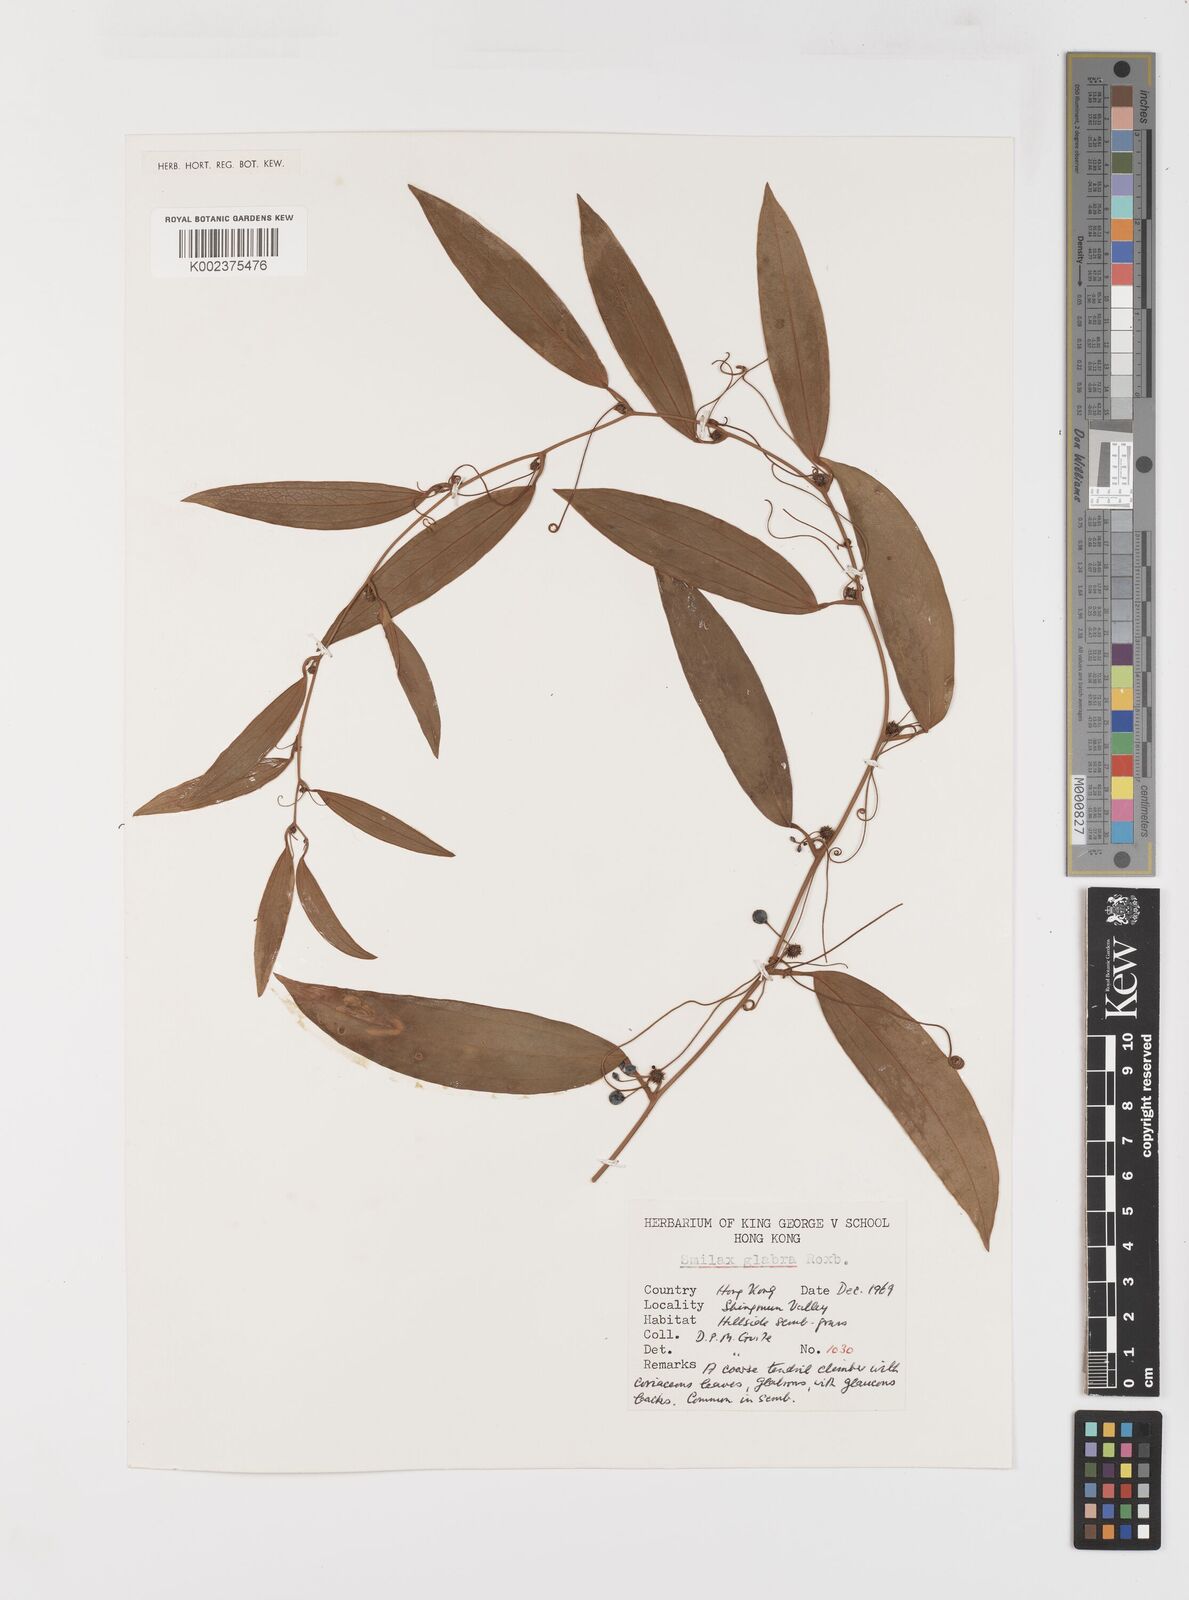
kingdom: Plantae
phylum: Tracheophyta
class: Liliopsida
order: Liliales
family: Smilacaceae
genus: Smilax
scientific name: Smilax glabra
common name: Chinese smilax
